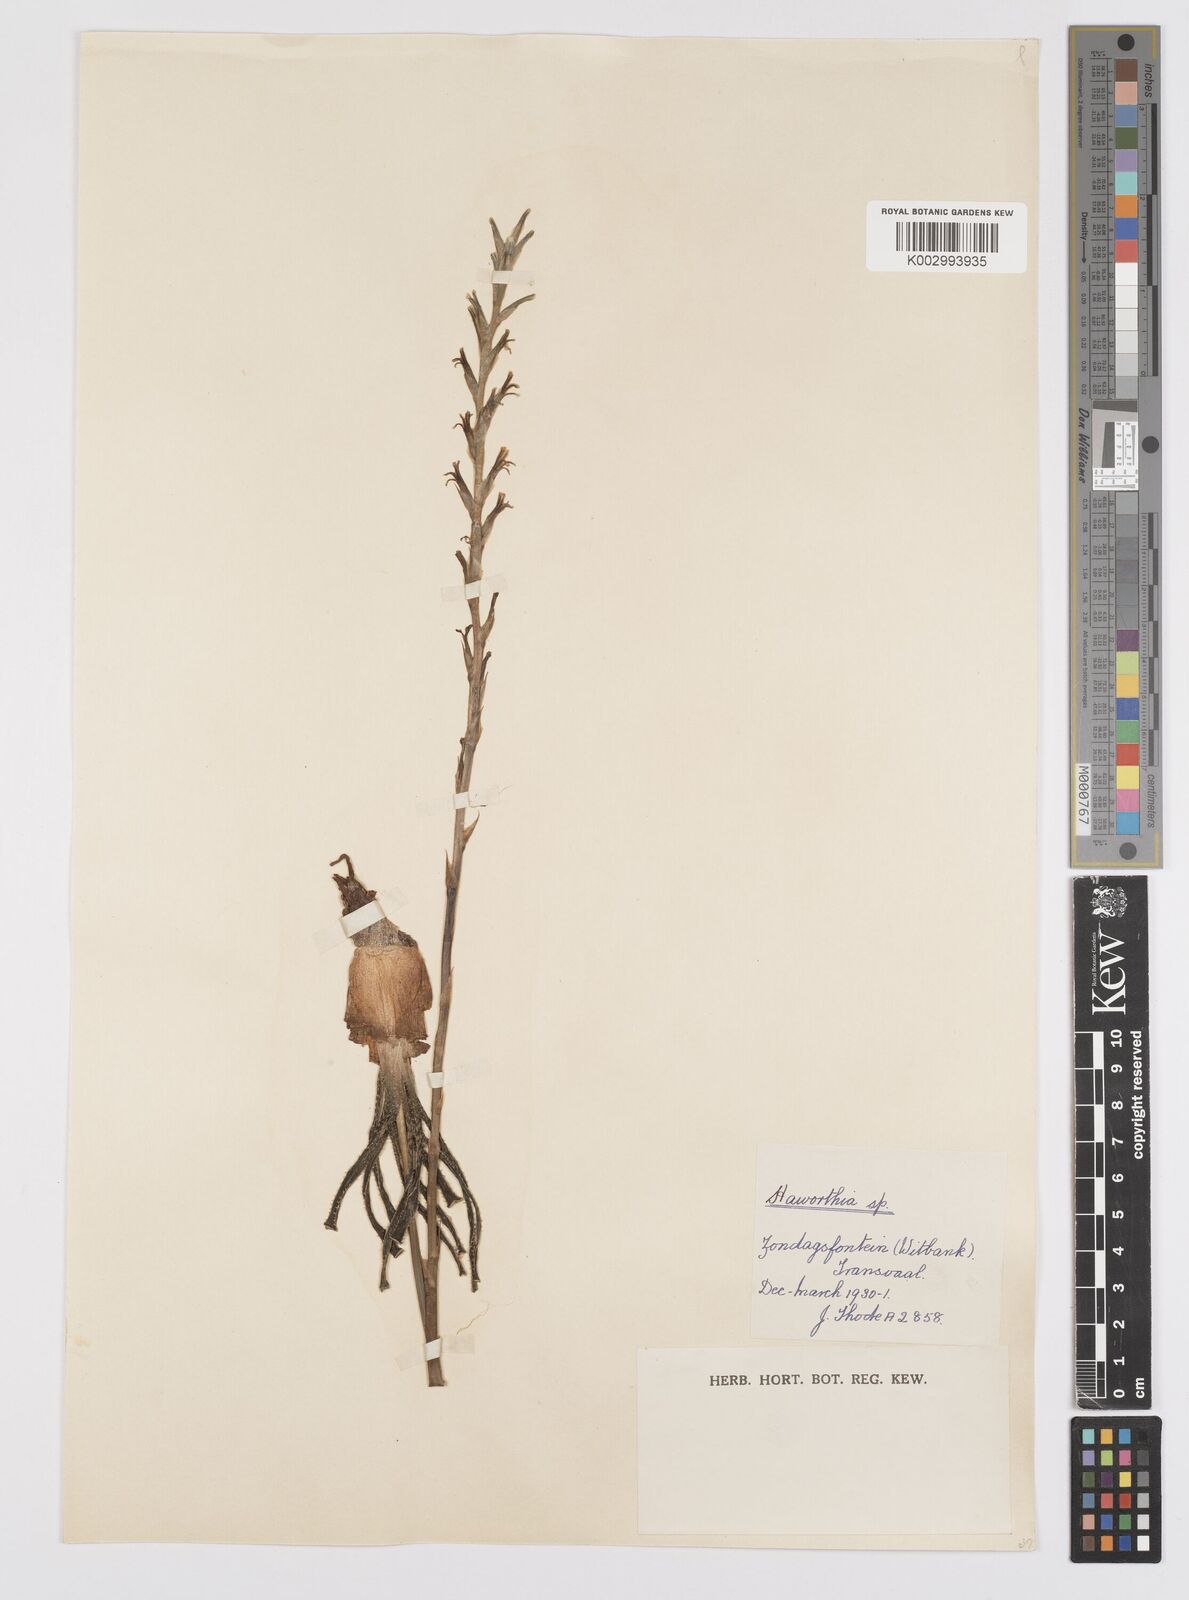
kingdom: Plantae
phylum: Tracheophyta
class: Liliopsida
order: Asparagales
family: Asphodelaceae
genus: Aloe
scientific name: Aloe welwitschii
